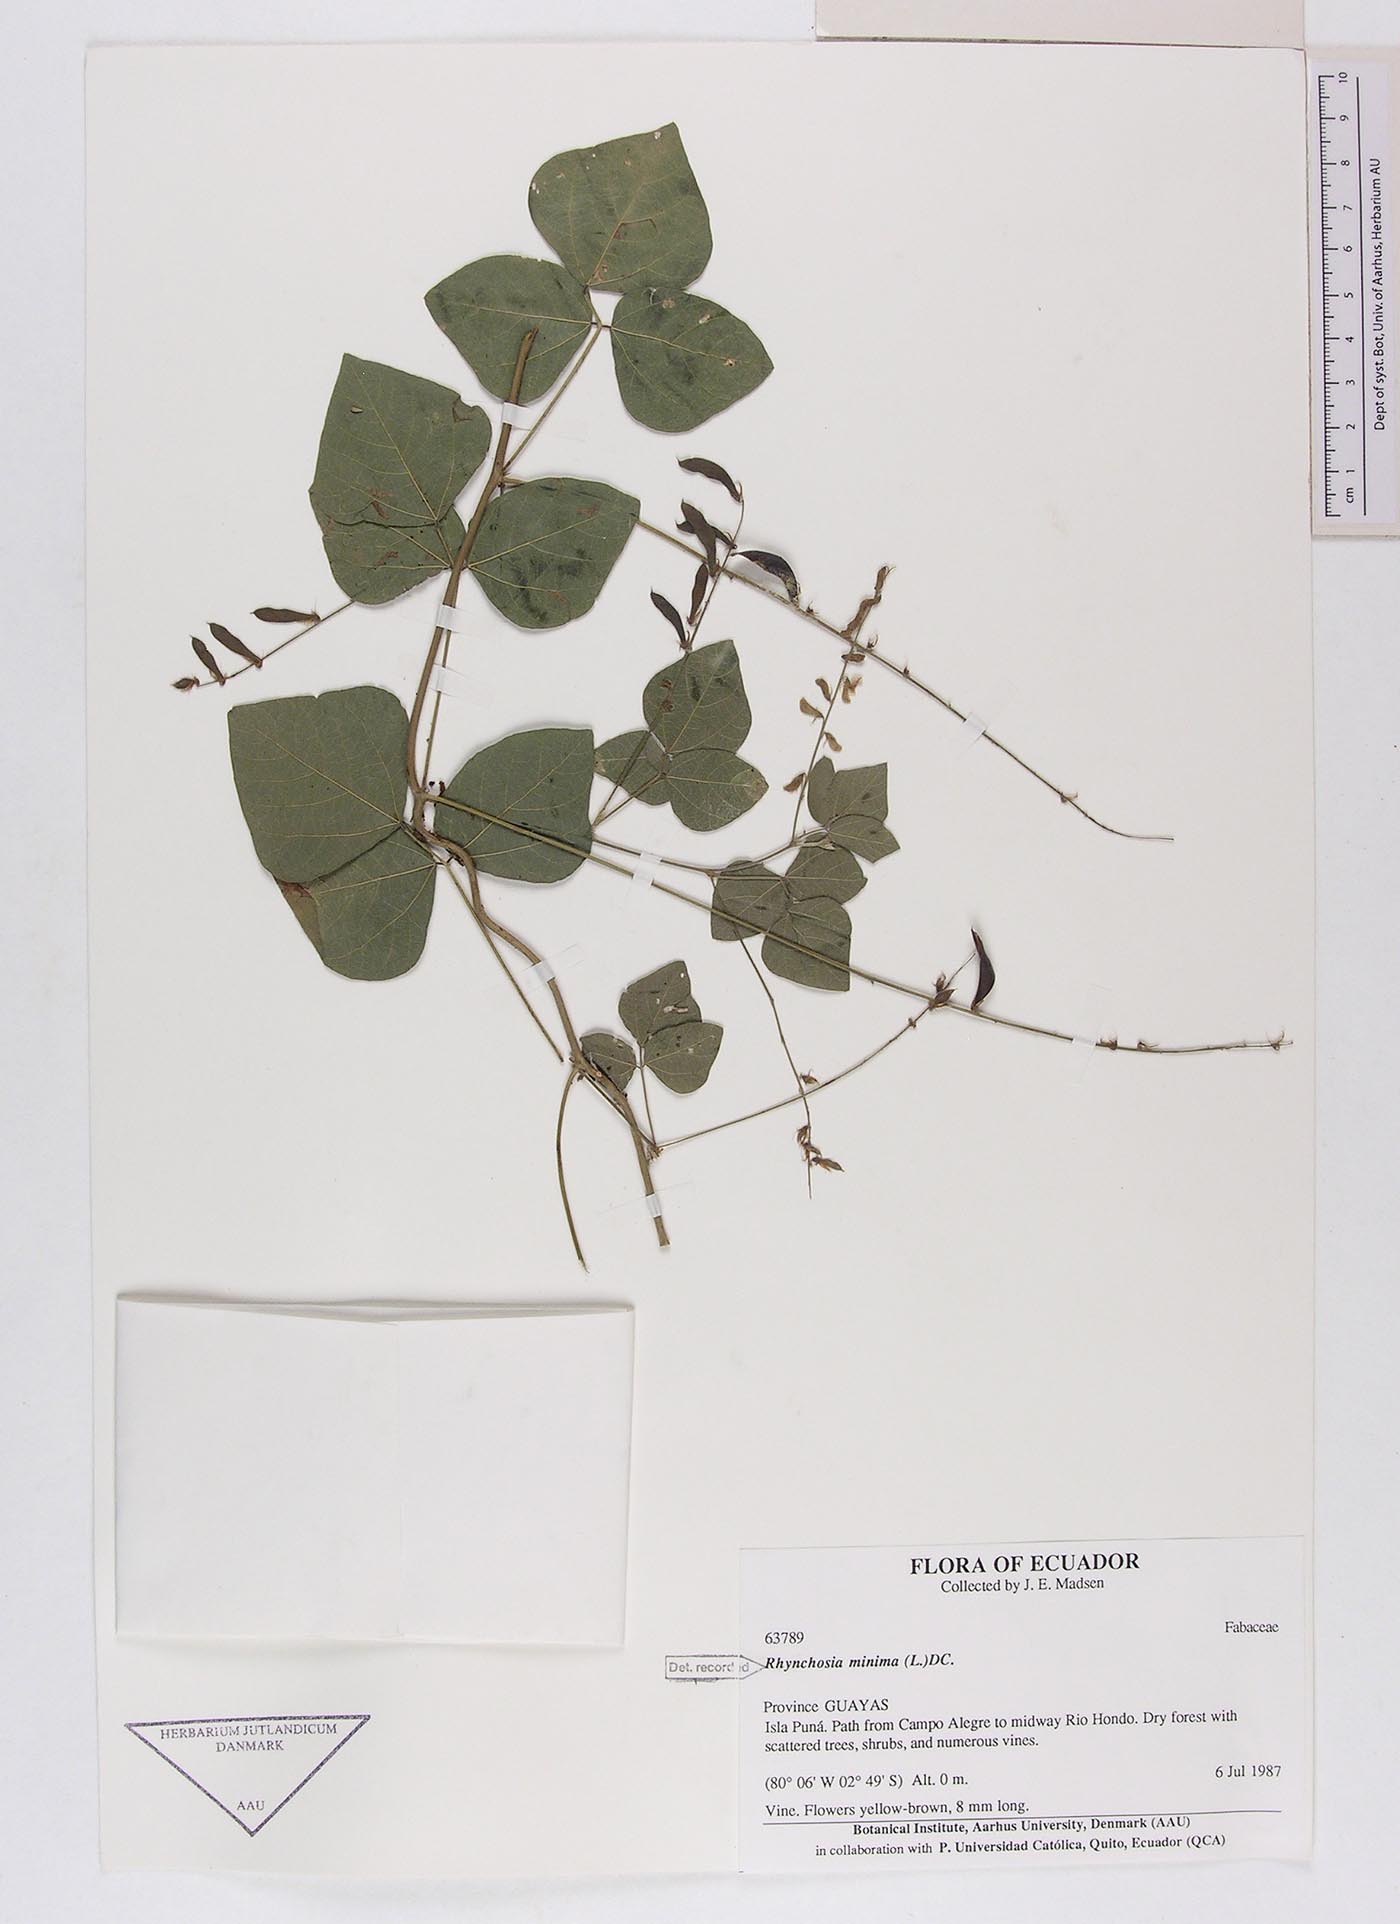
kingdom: Plantae
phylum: Tracheophyta
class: Magnoliopsida
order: Fabales
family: Fabaceae
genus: Rhynchosia
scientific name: Rhynchosia minima
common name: Least snoutbean
